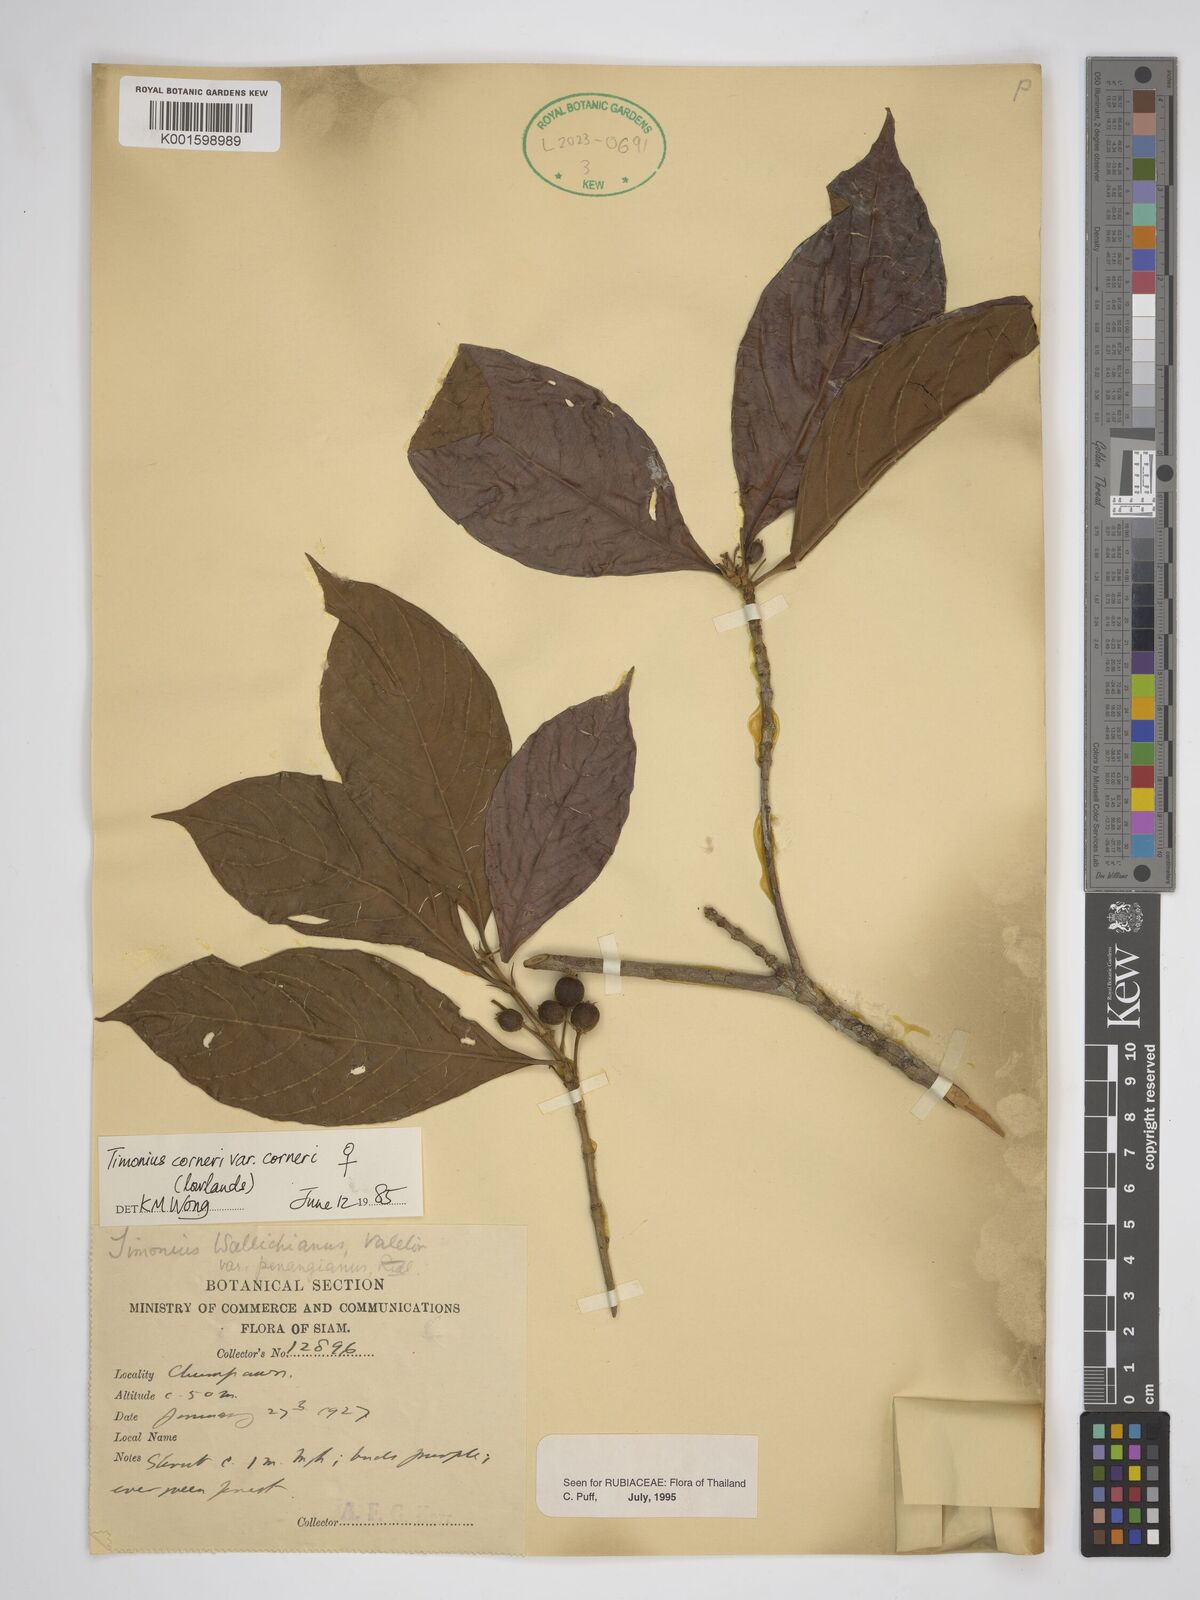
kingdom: Plantae
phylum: Tracheophyta
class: Magnoliopsida
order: Gentianales
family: Rubiaceae
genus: Timonius
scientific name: Timonius corneri
